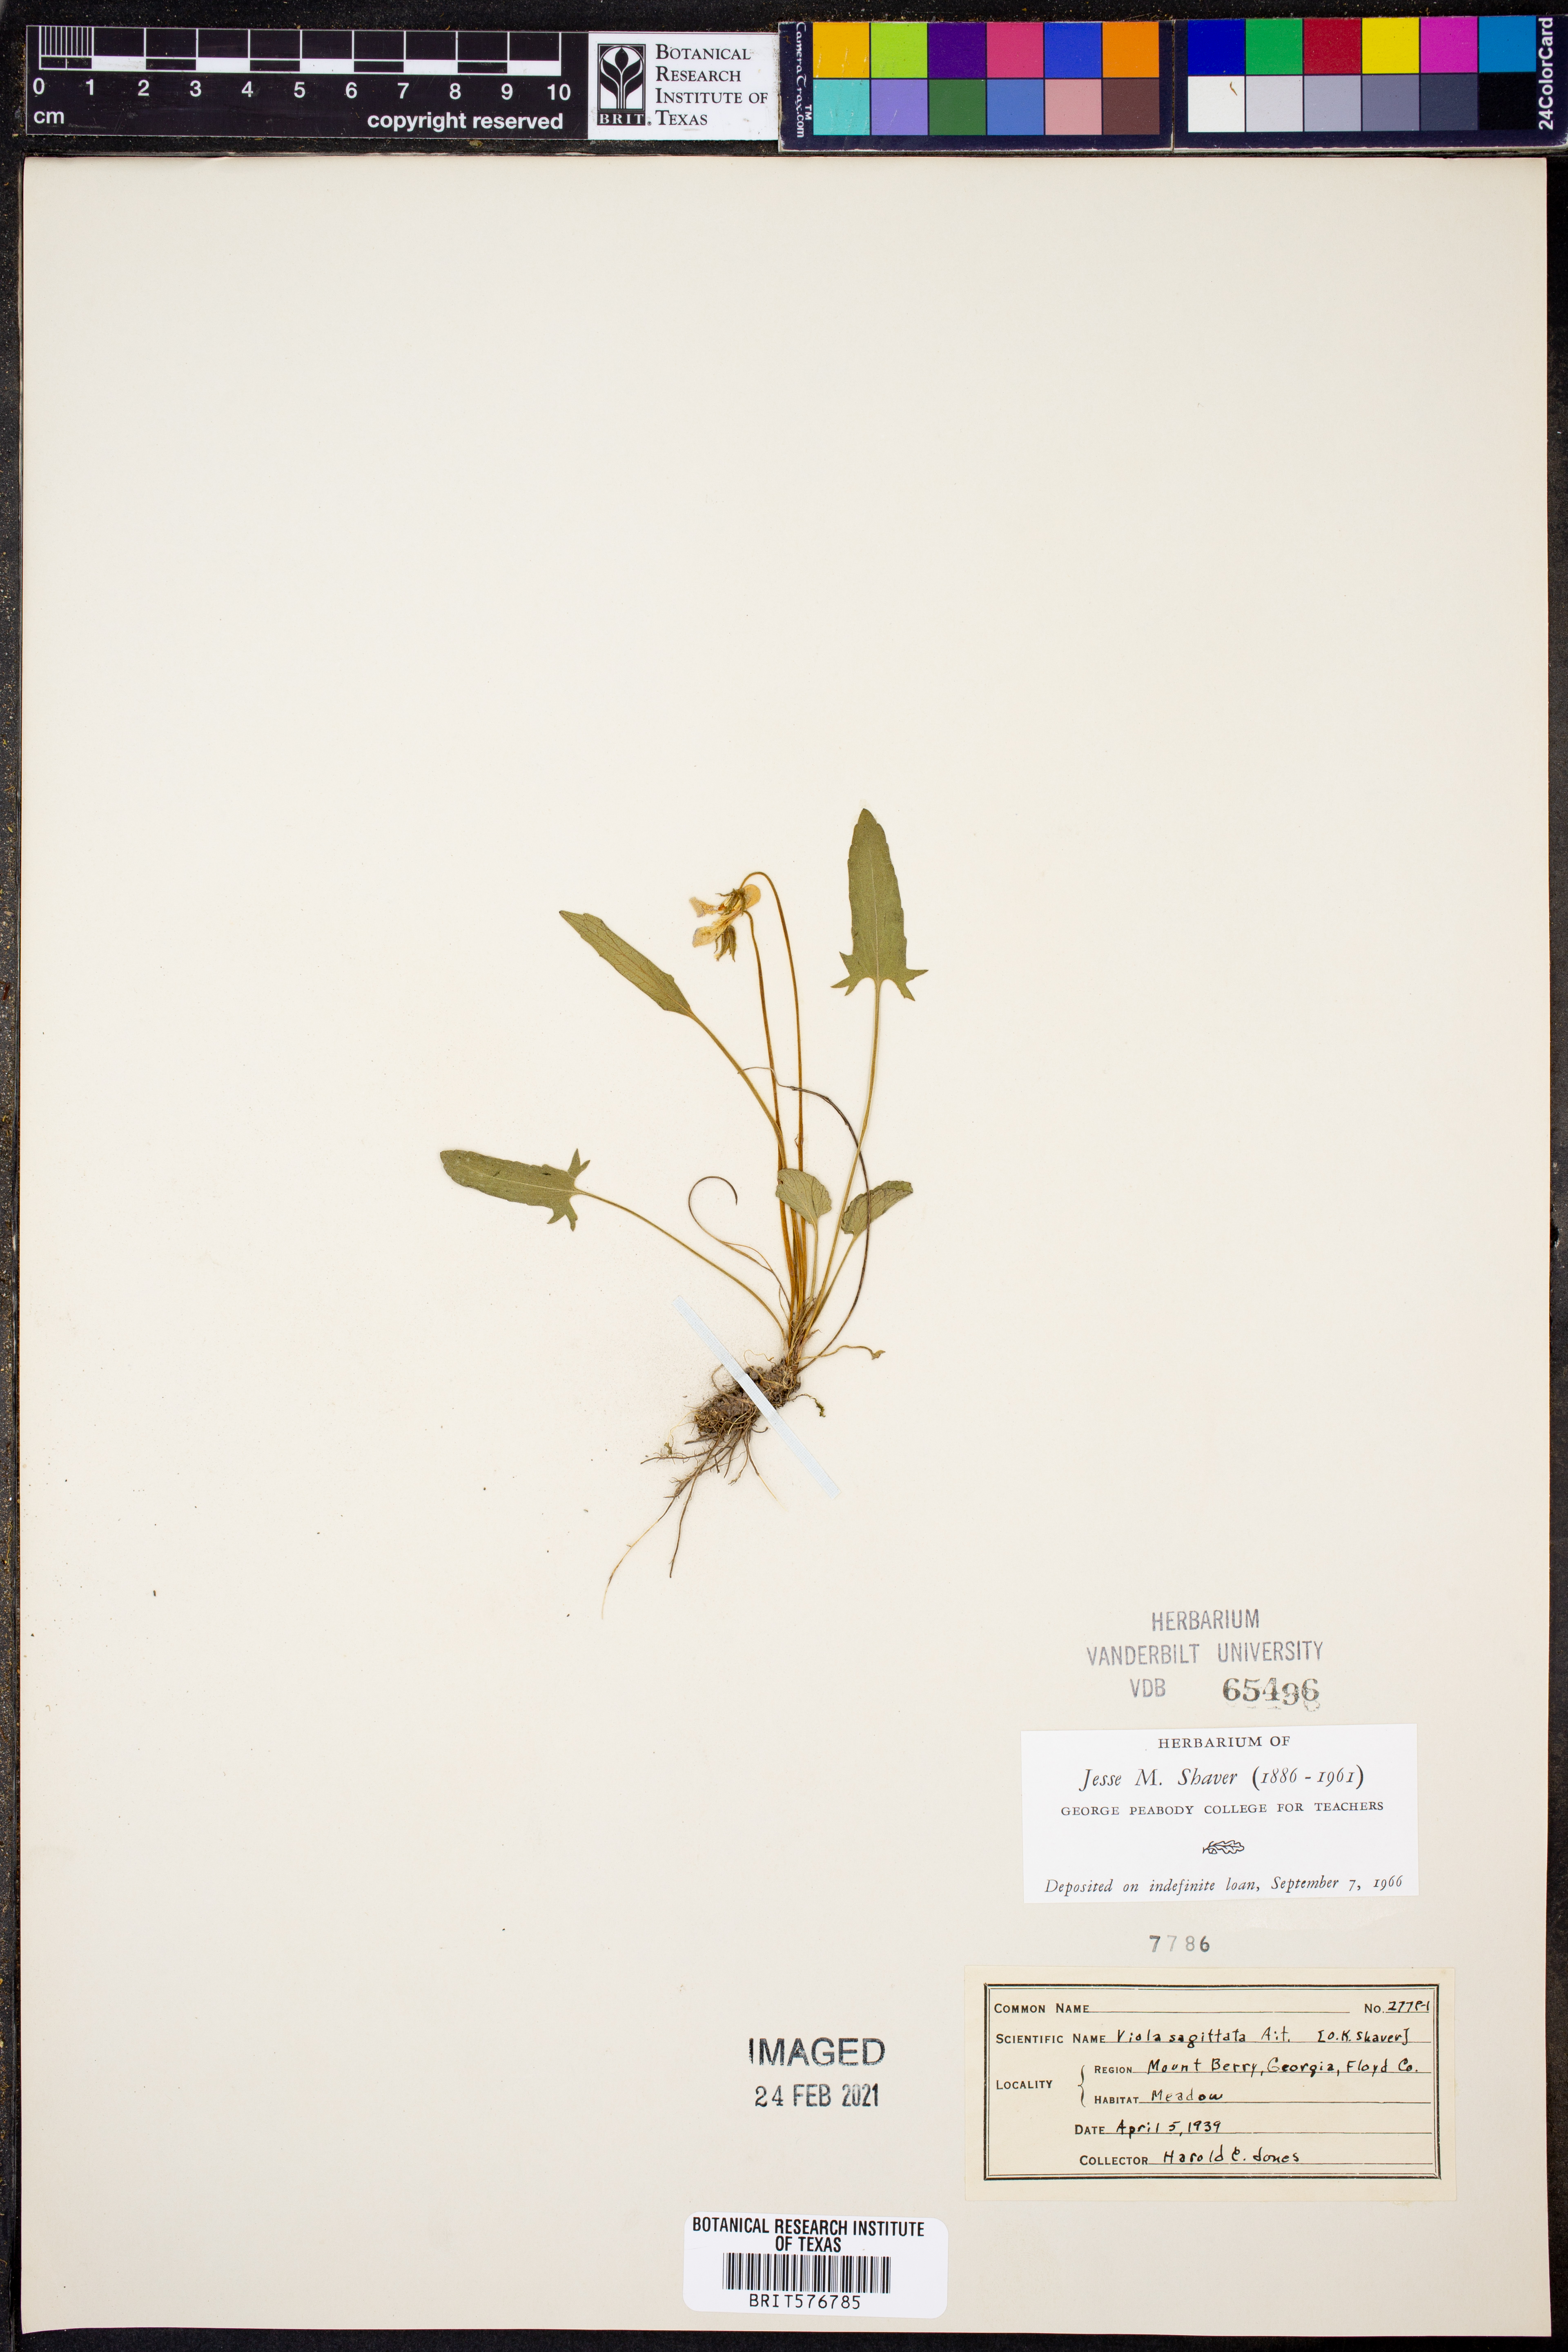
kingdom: Plantae
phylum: Tracheophyta
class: Magnoliopsida
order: Malpighiales
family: Violaceae
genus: Viola
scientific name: Viola sagittata
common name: Arrowhead violet
